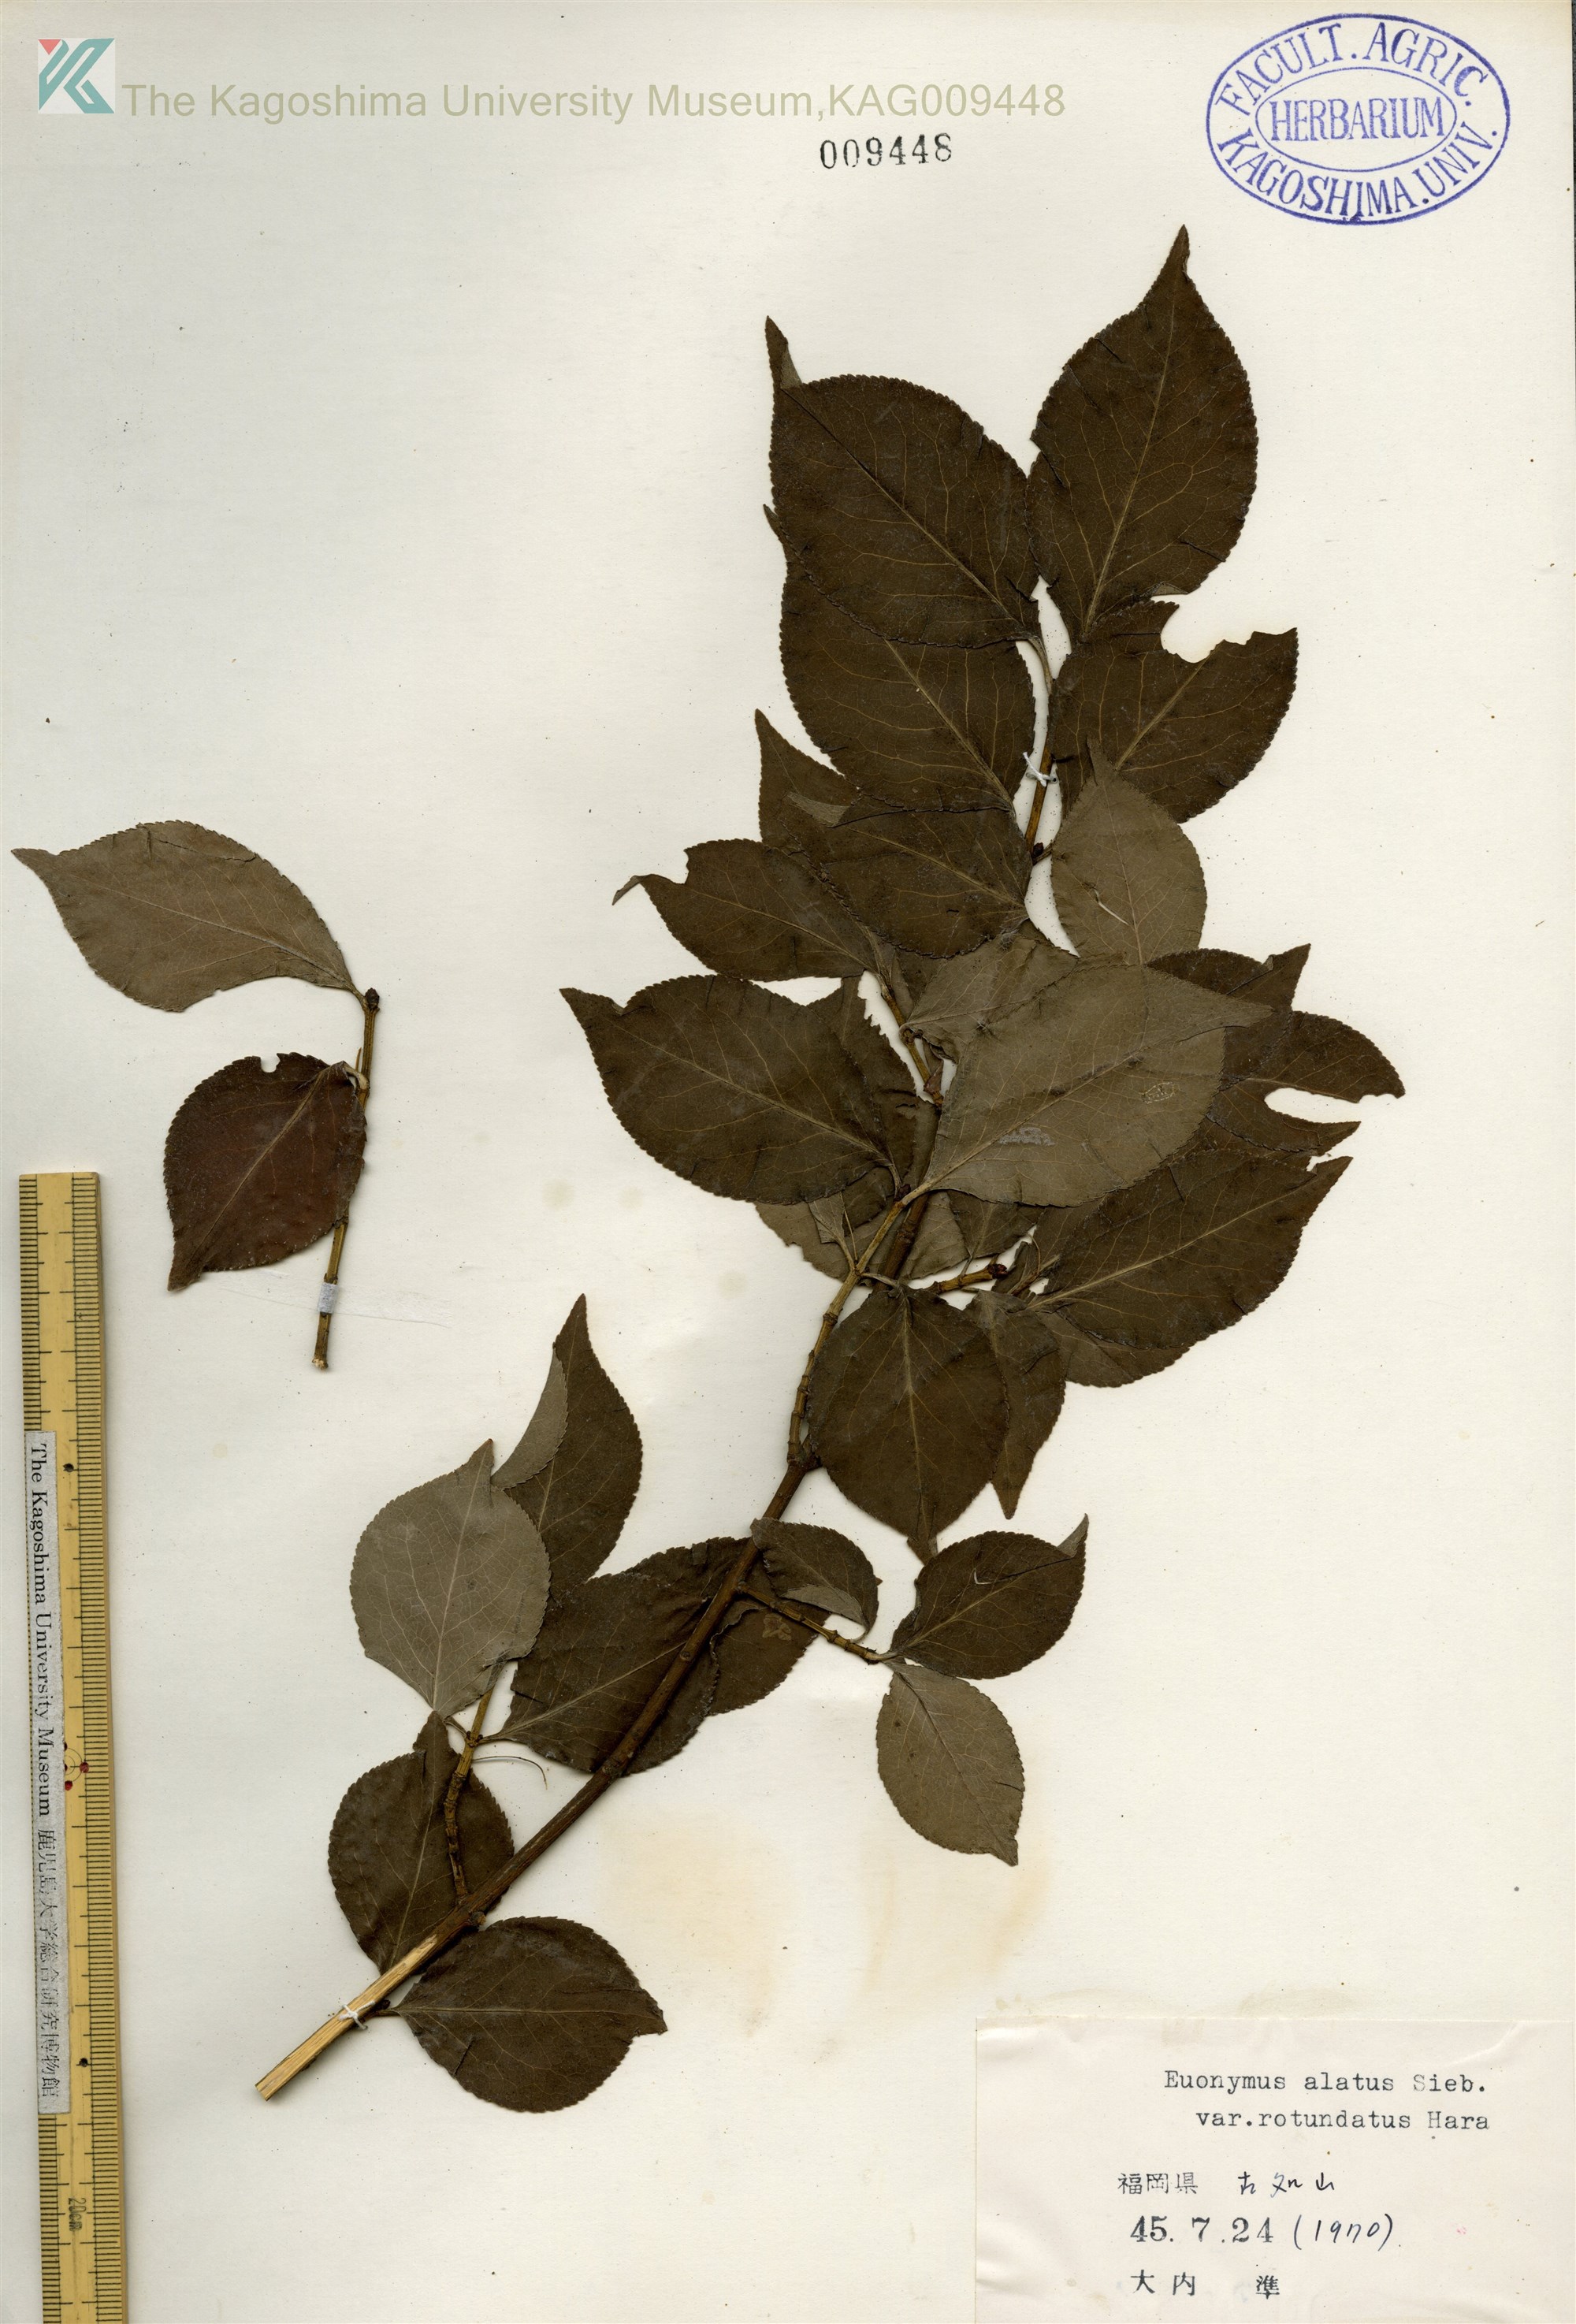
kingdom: Plantae
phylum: Tracheophyta
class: Magnoliopsida
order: Celastrales
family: Celastraceae
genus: Euonymus
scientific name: Euonymus alatus
